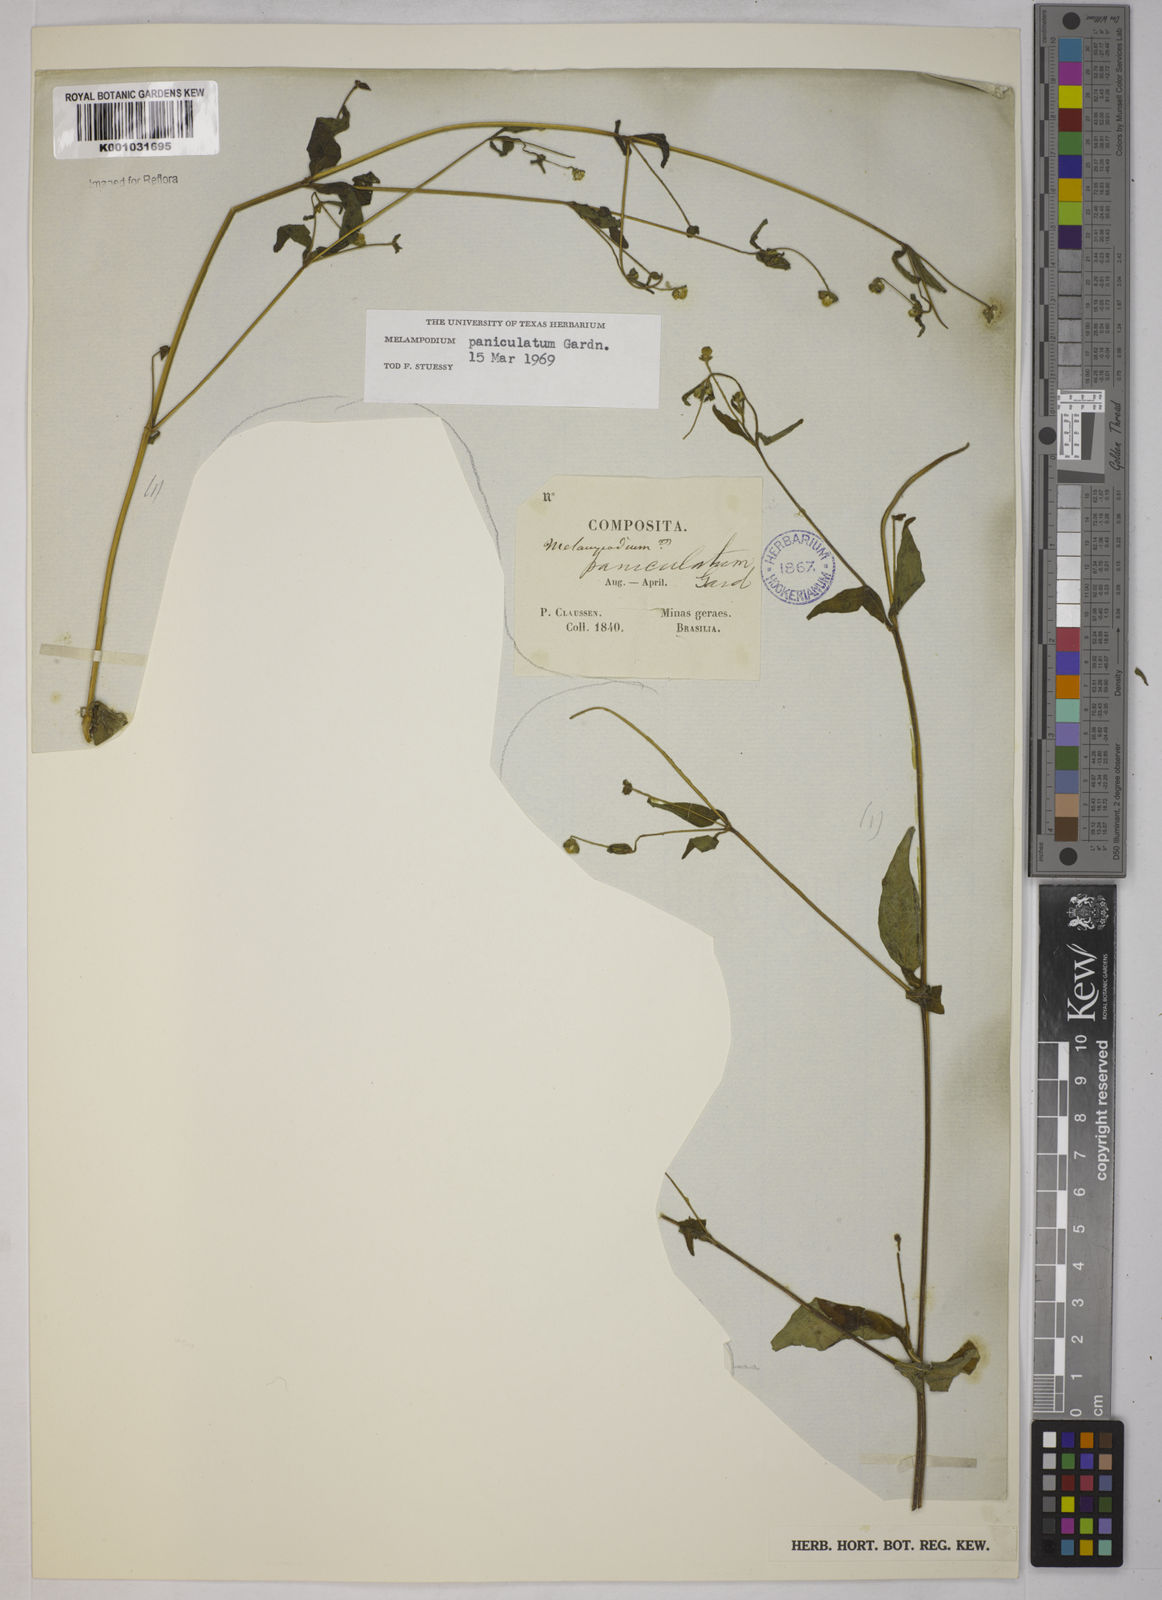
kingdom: Plantae
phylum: Tracheophyta
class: Magnoliopsida
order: Asterales
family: Asteraceae
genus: Melampodium
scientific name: Melampodium paniculatum
